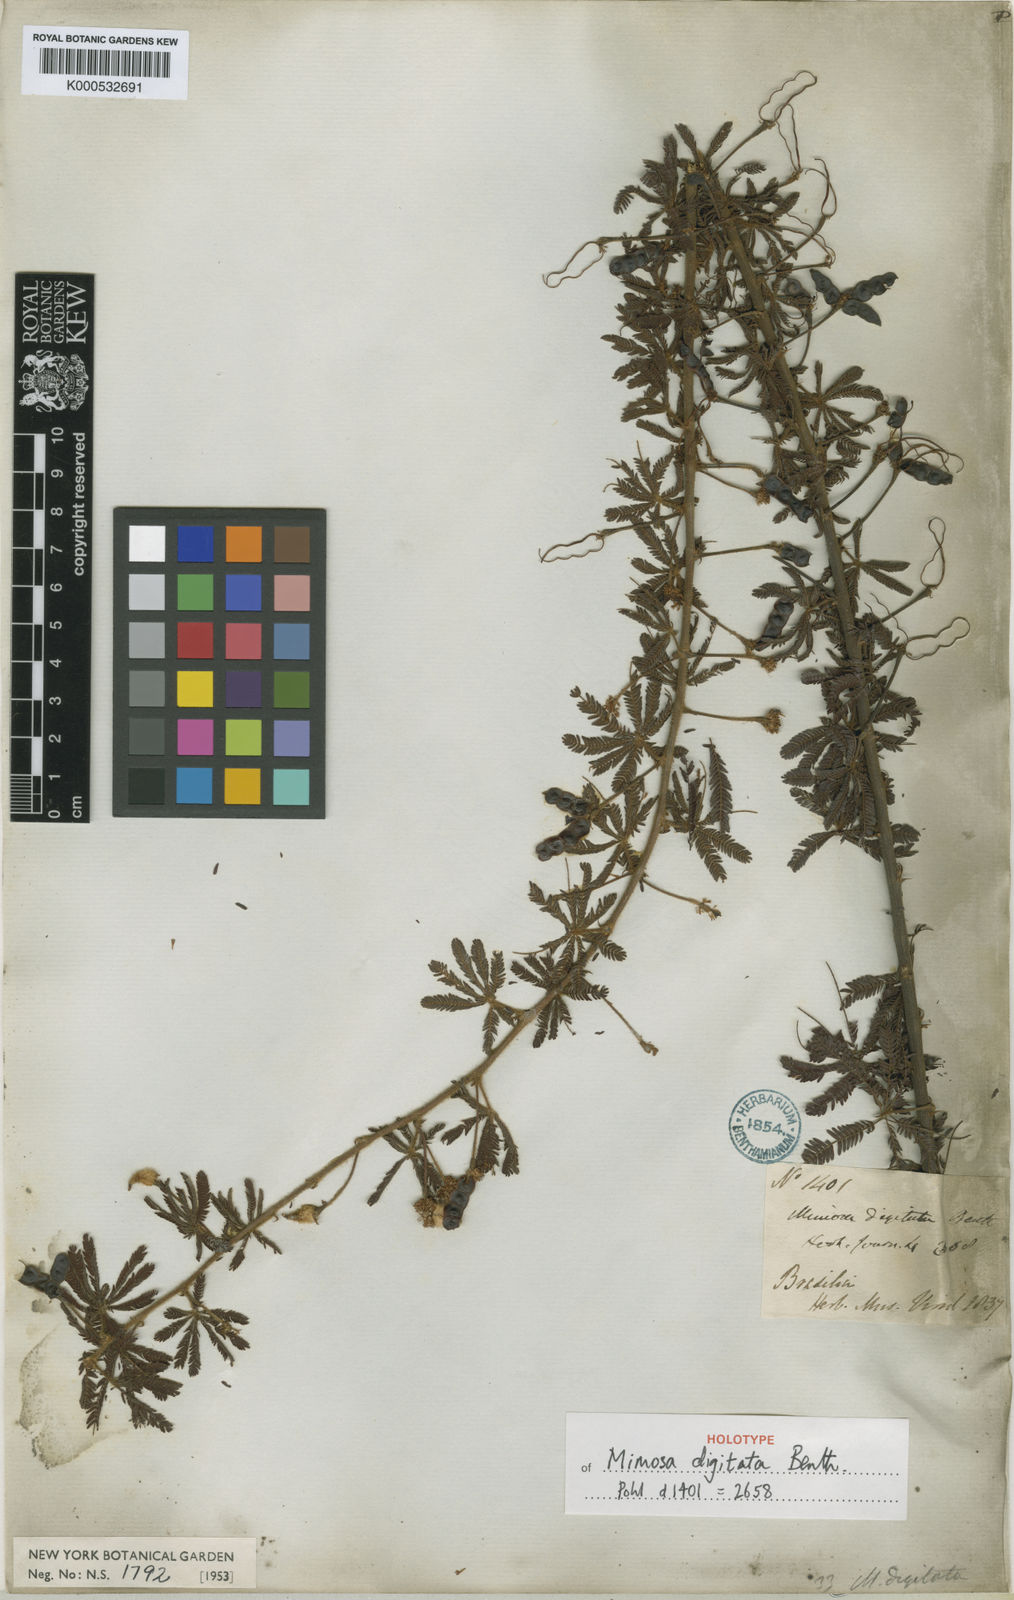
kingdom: Plantae
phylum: Tracheophyta
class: Magnoliopsida
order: Fabales
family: Fabaceae
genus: Mimosa
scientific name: Mimosa digitata
